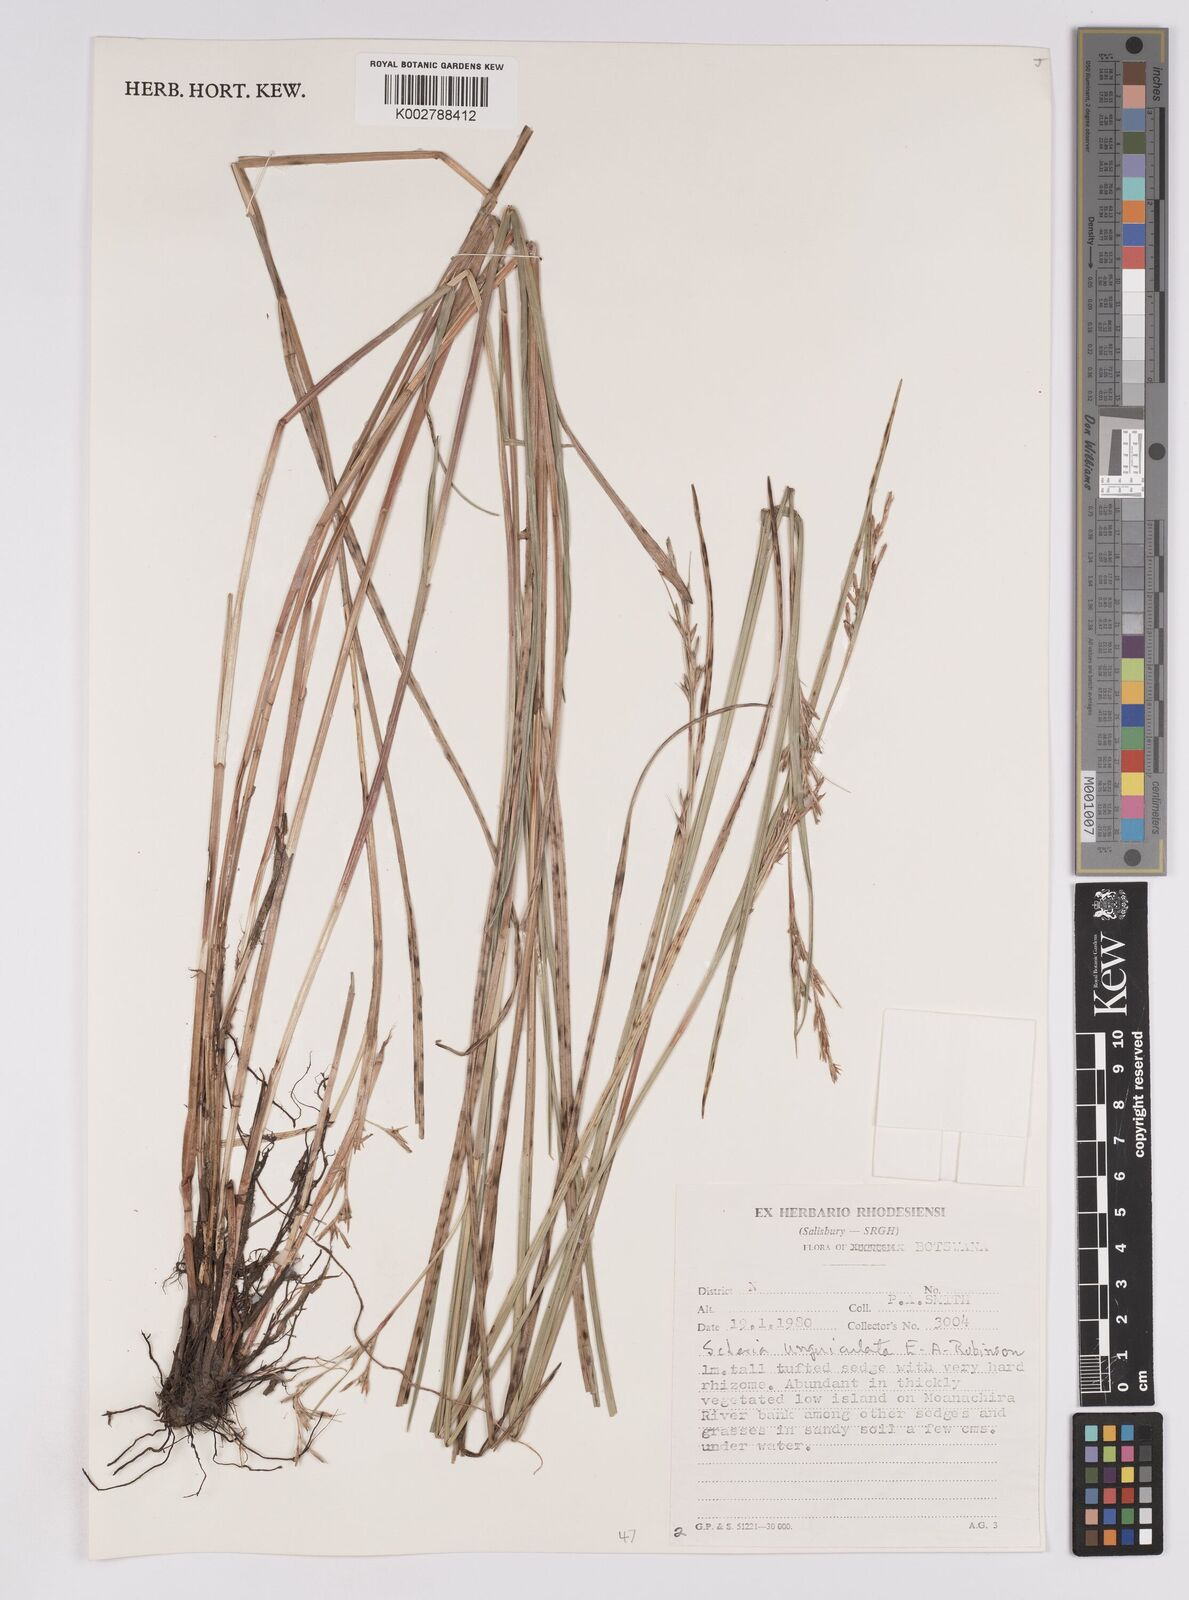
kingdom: Plantae
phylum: Tracheophyta
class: Liliopsida
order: Poales
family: Cyperaceae
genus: Scleria
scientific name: Scleria unguiculata
